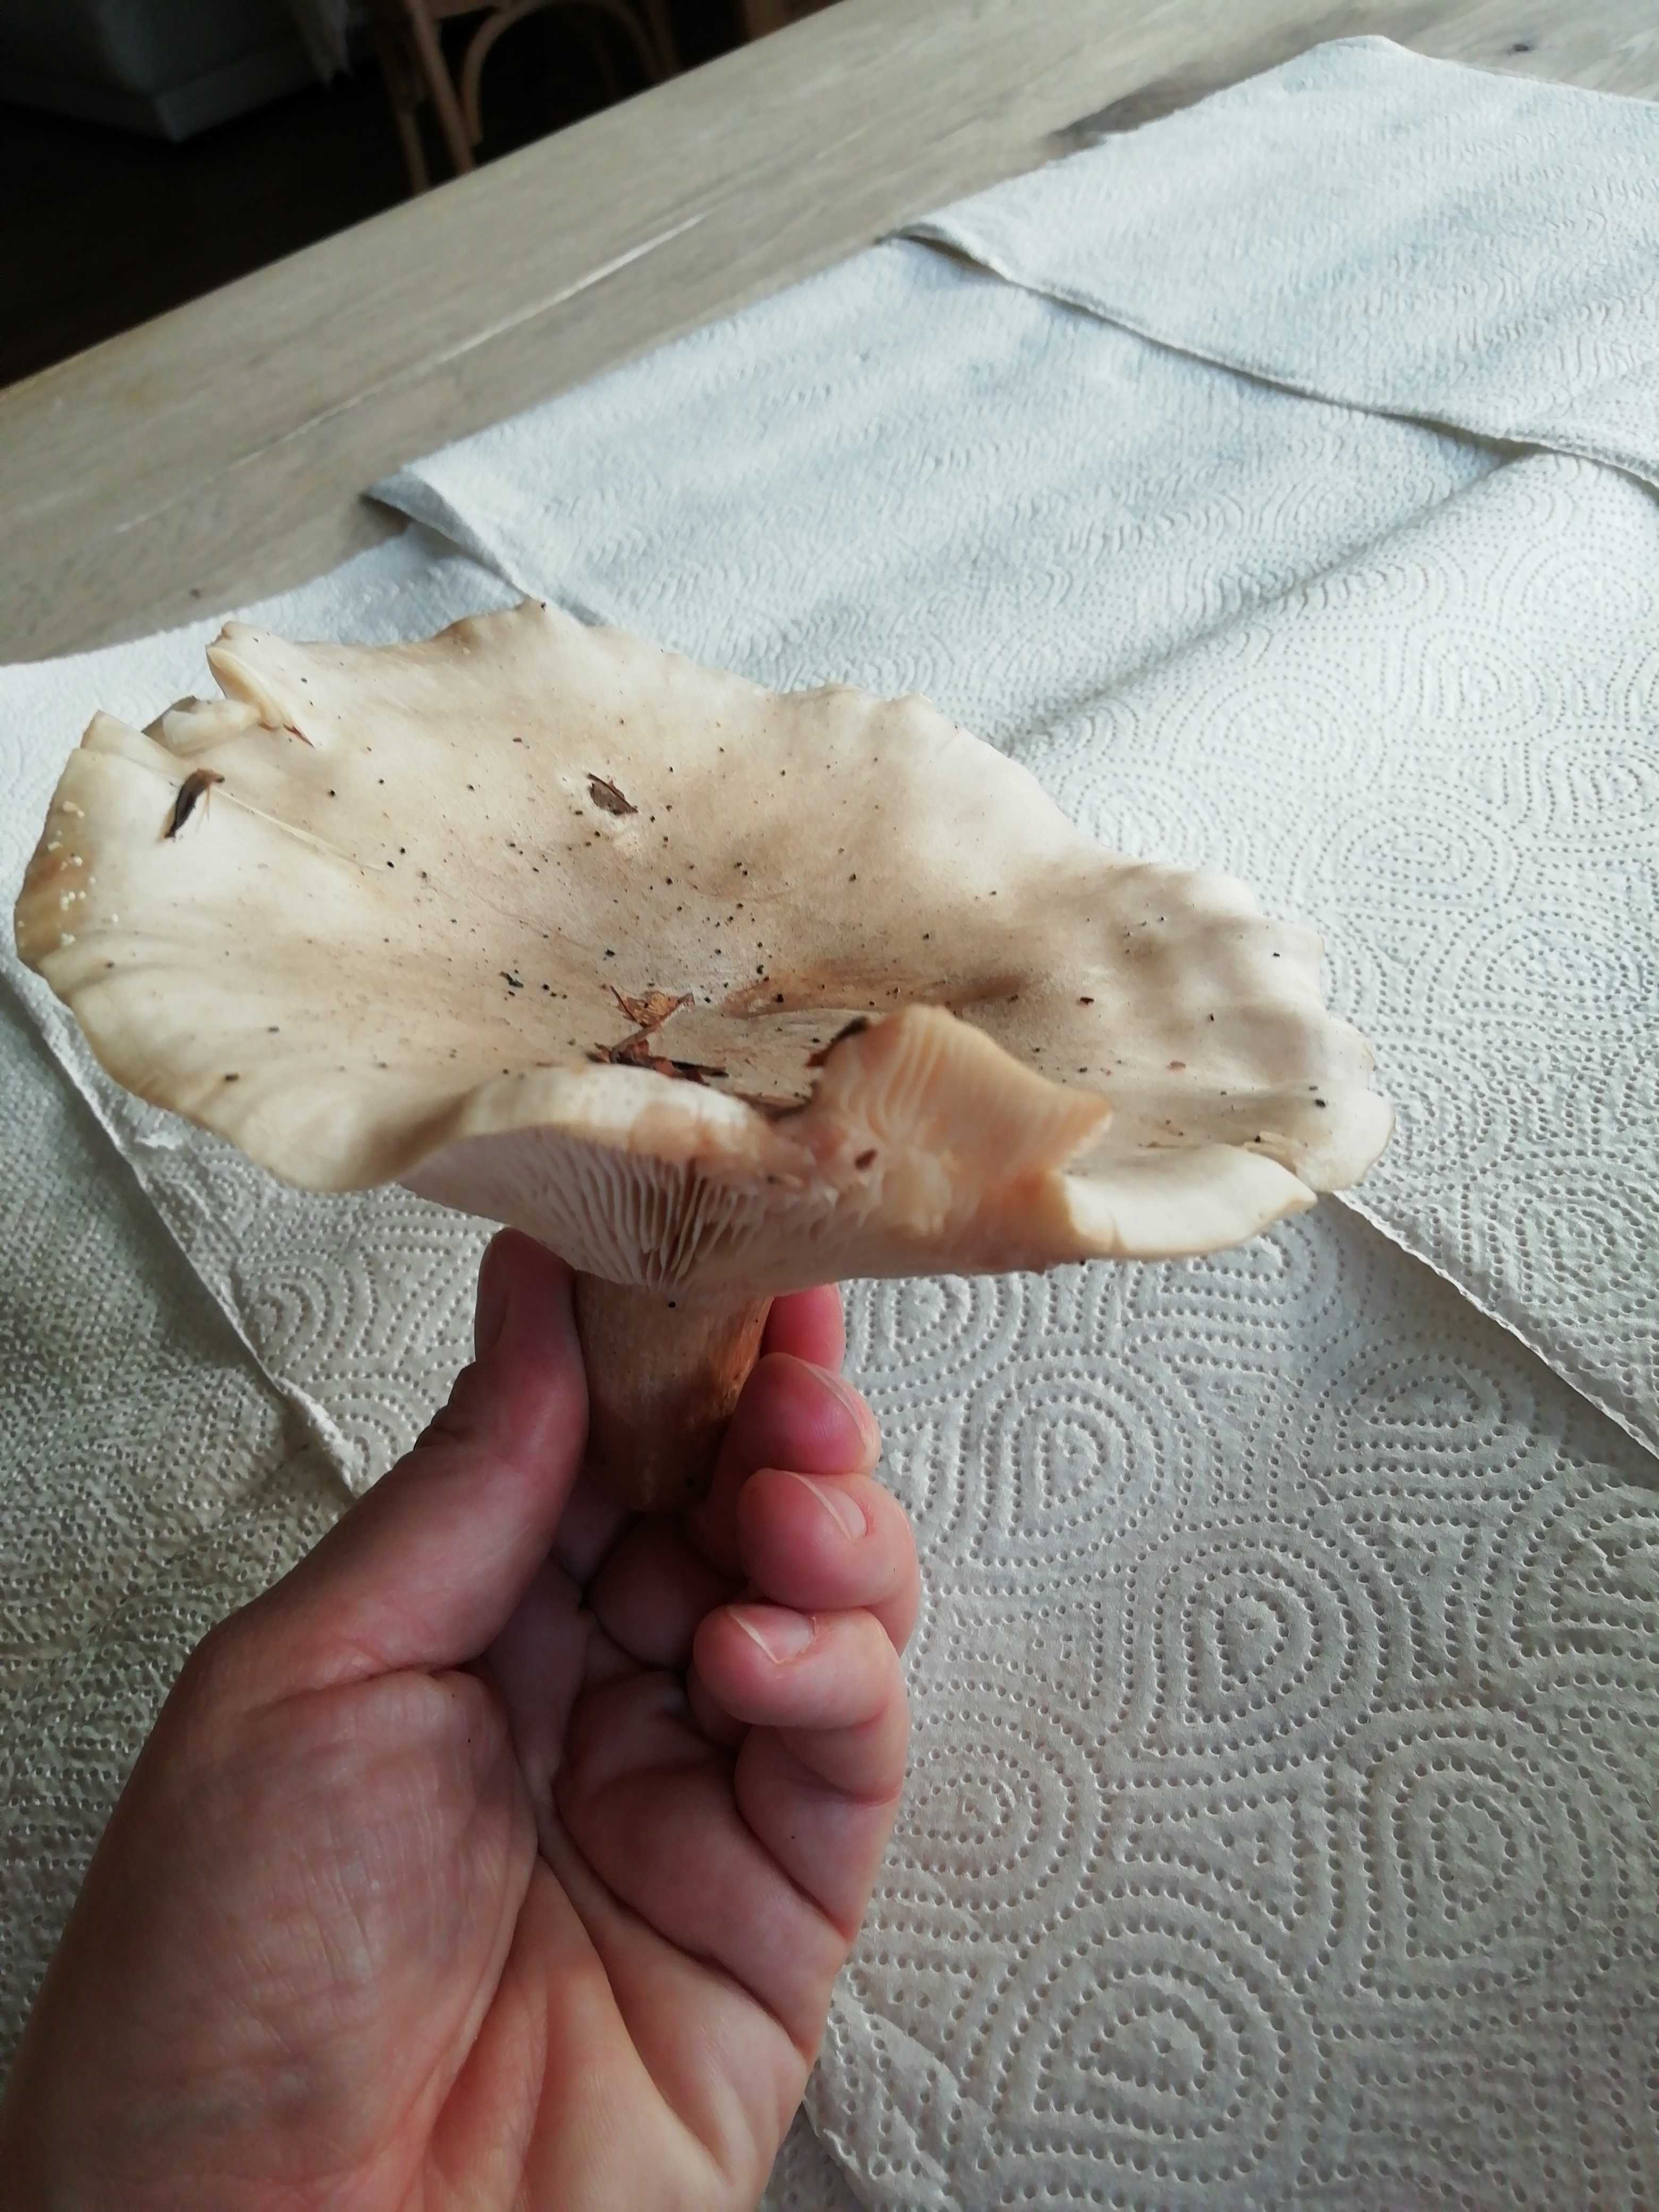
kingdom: Fungi
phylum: Basidiomycota
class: Agaricomycetes
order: Agaricales
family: Tricholomataceae
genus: Clitocybe
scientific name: Clitocybe nebularis
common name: tåge-tragthat
